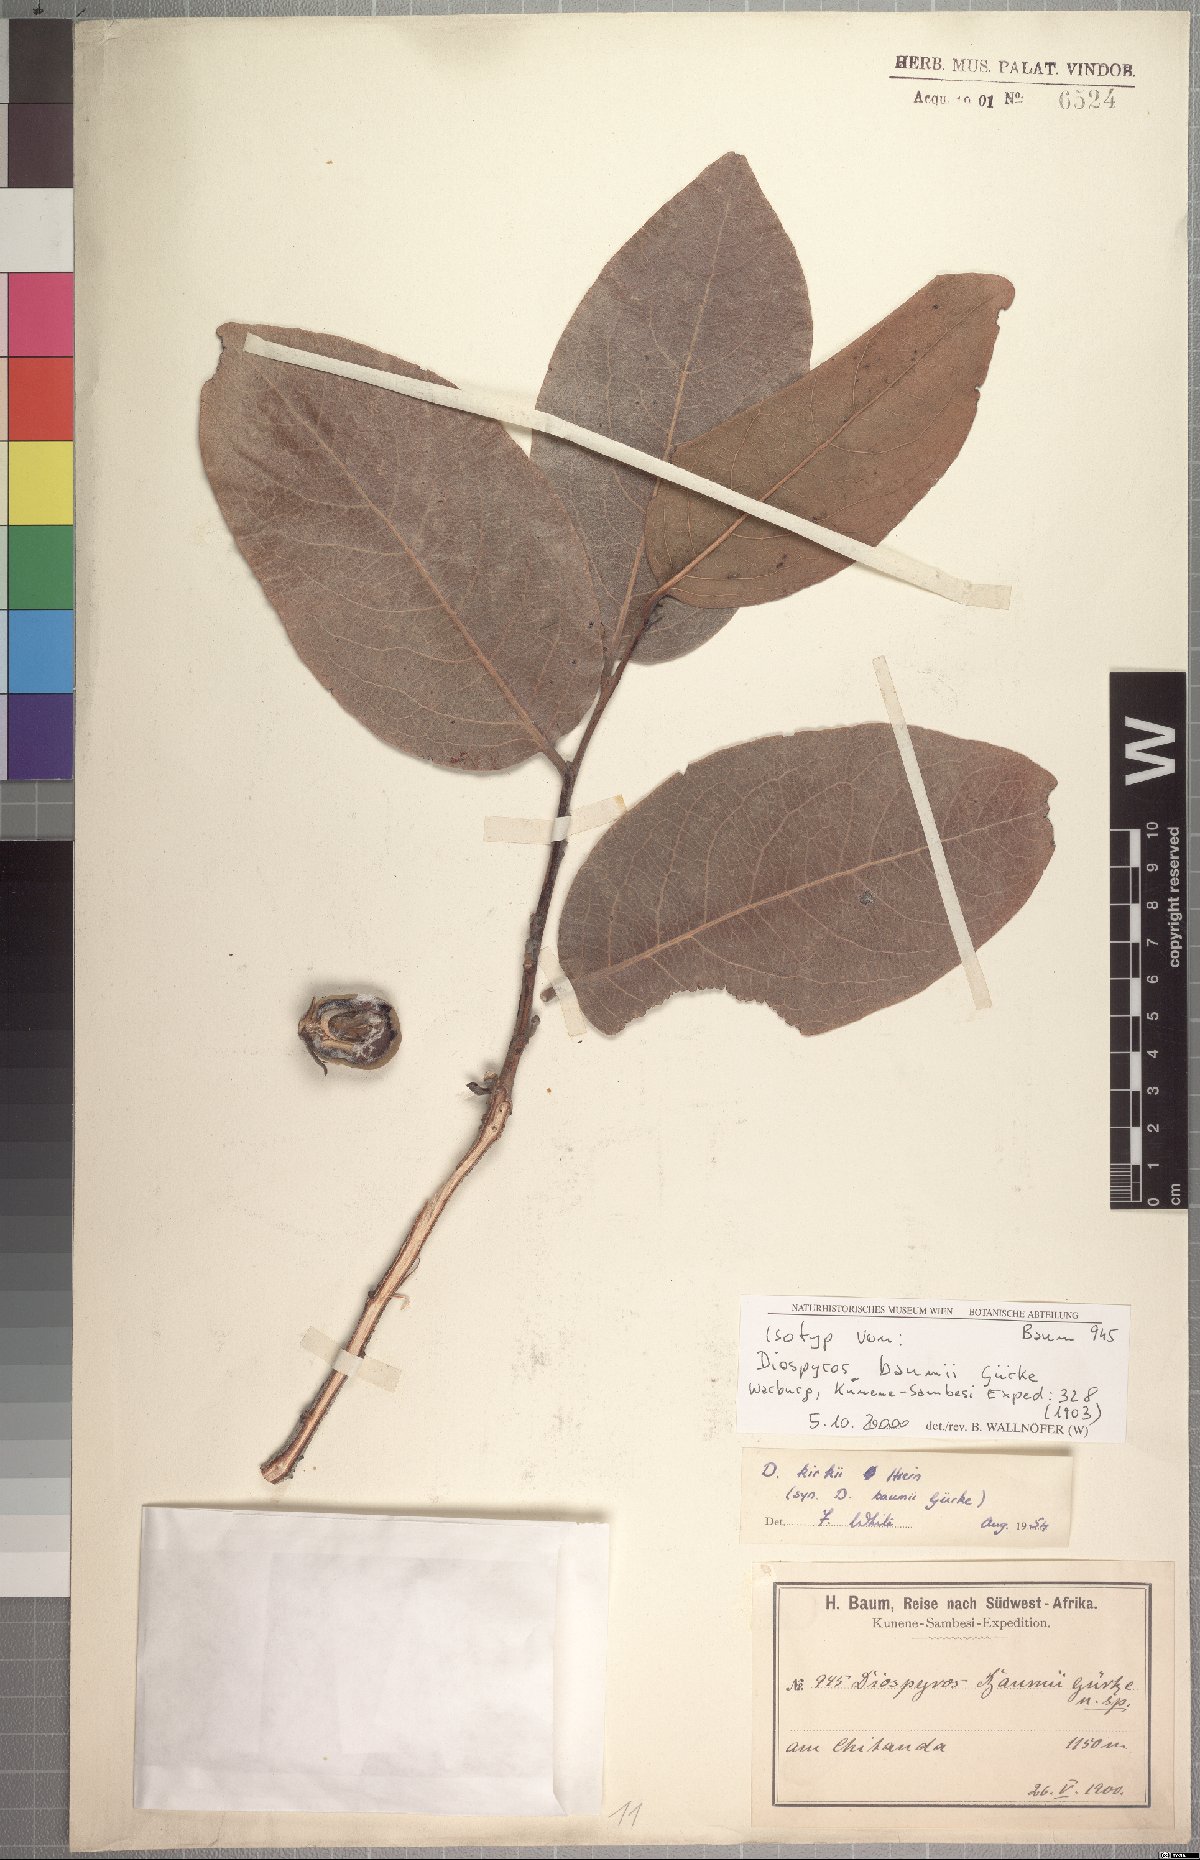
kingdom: Plantae
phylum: Tracheophyta
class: Magnoliopsida
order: Ericales
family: Ebenaceae
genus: Diospyros
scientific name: Diospyros kirkii
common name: Large-leaved jackal berry
